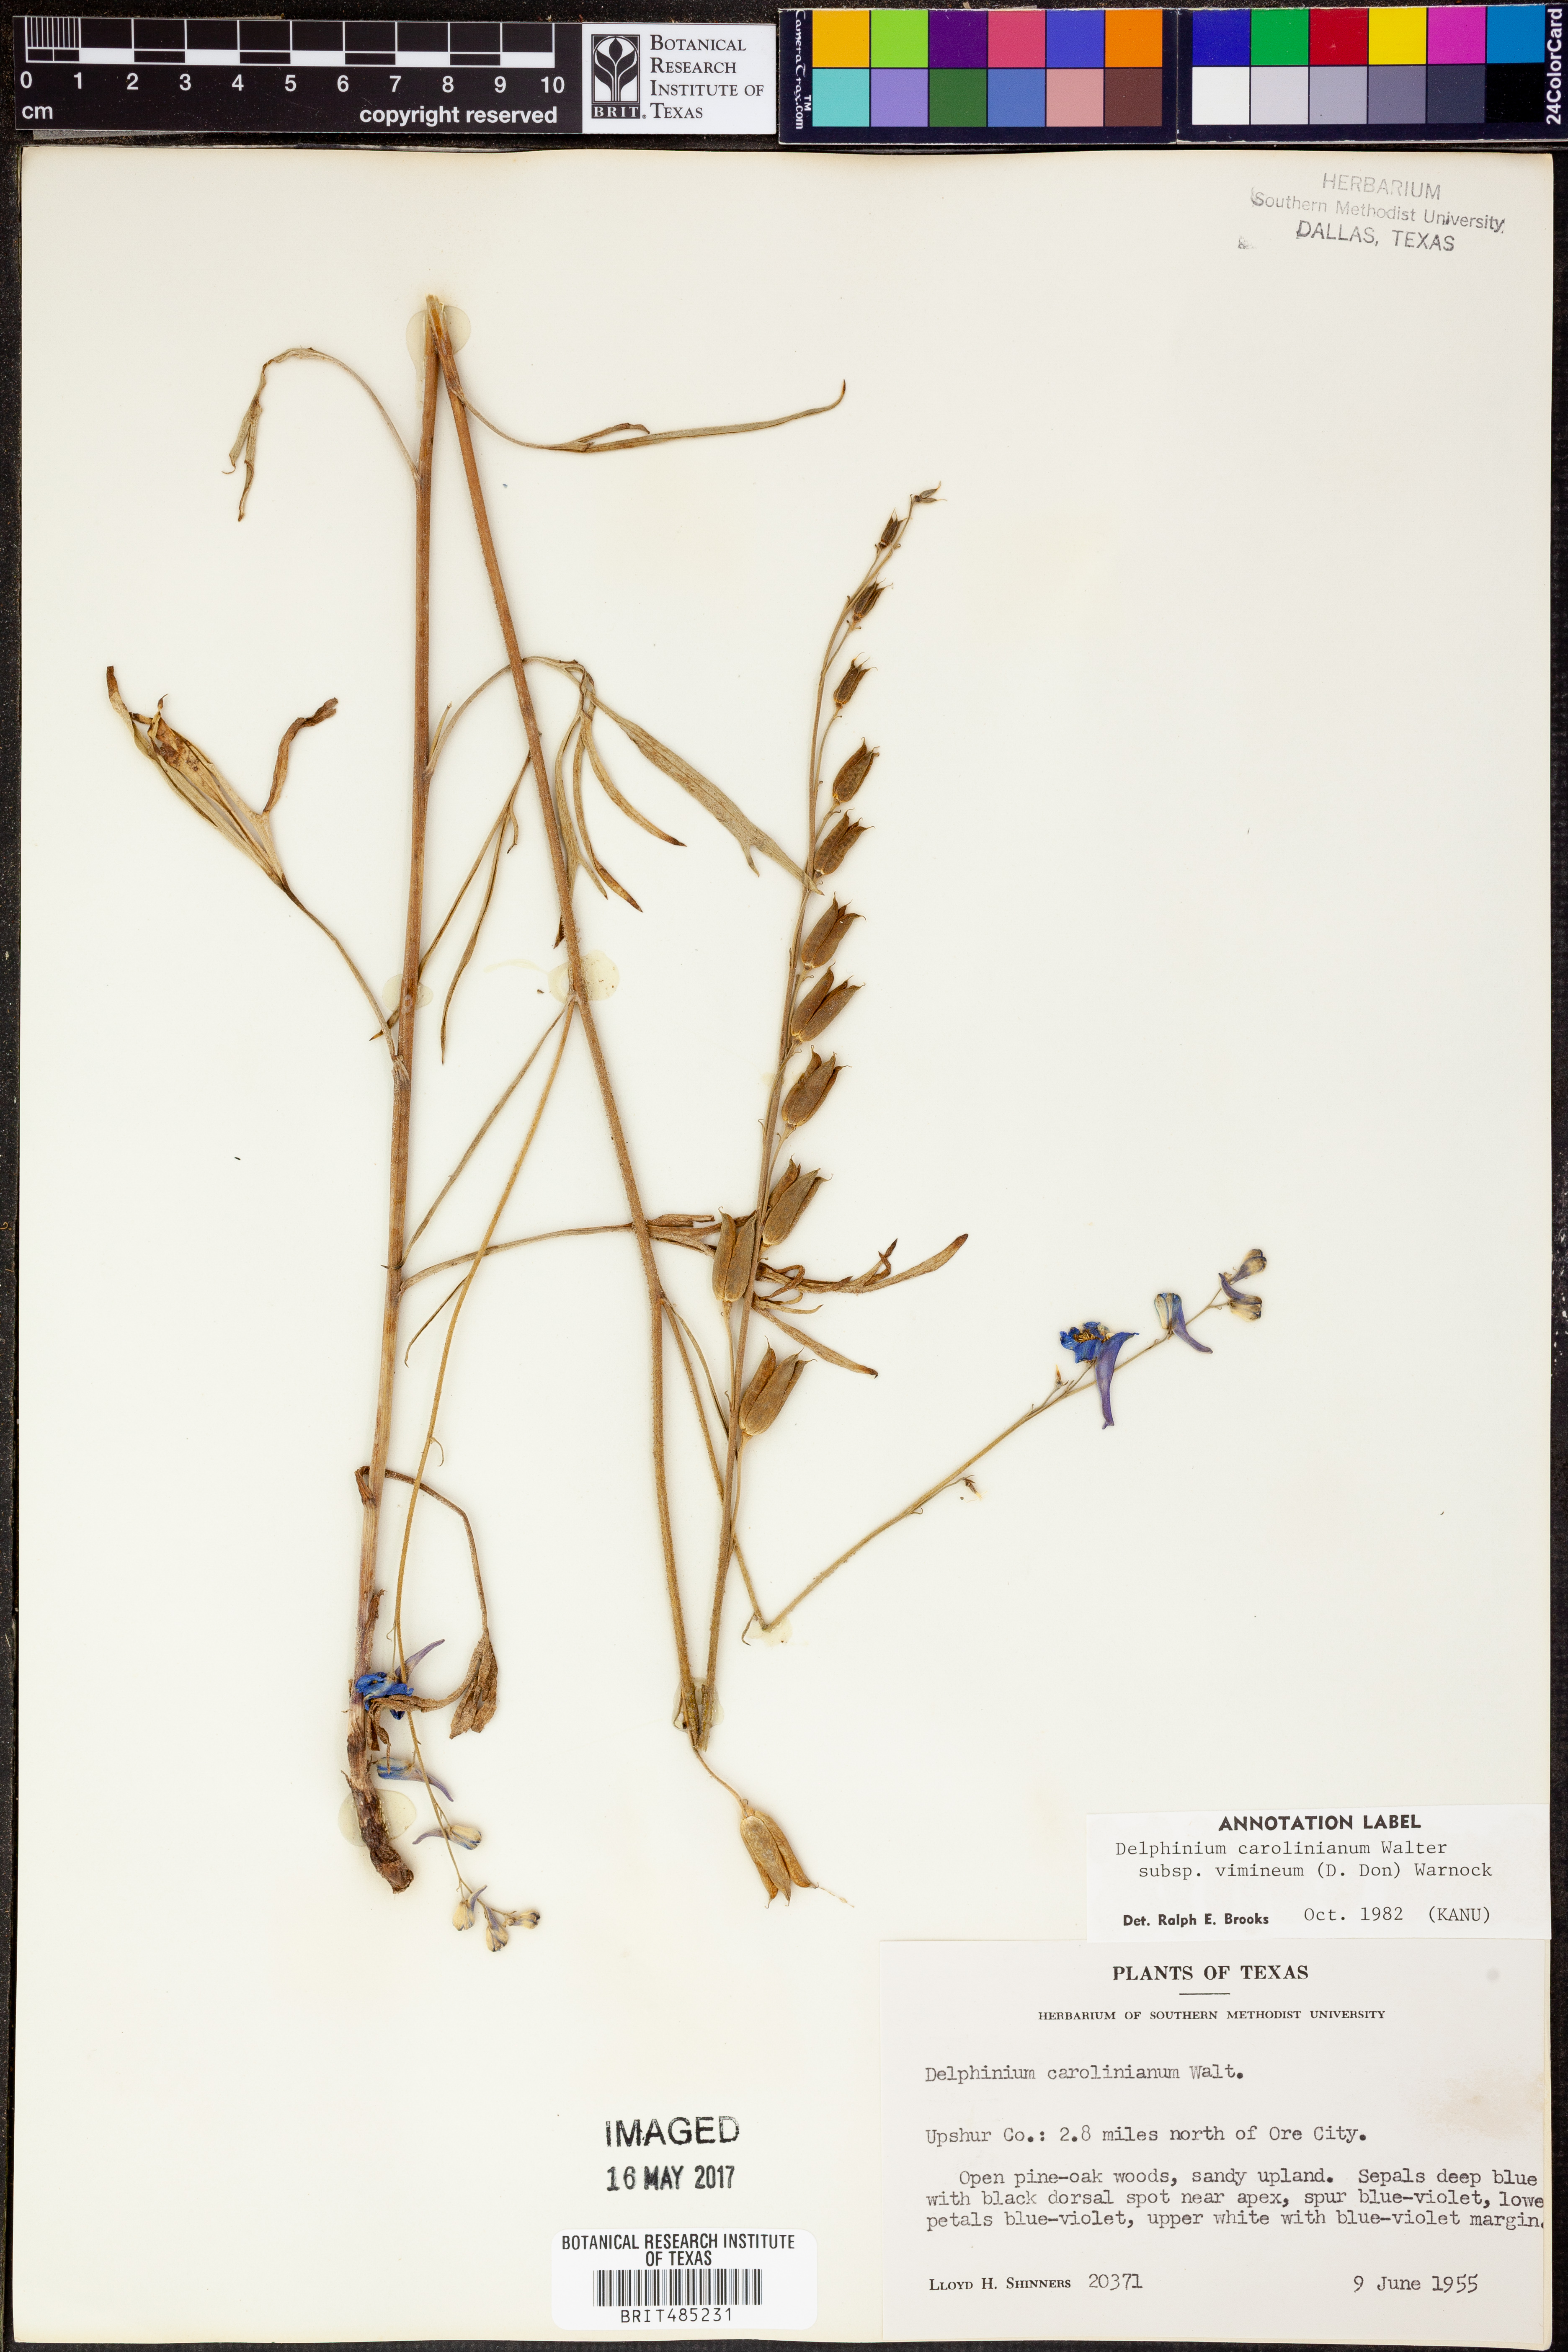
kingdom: Plantae
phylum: Tracheophyta
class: Magnoliopsida
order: Ranunculales
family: Ranunculaceae
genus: Delphinium
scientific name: Delphinium carolinianum
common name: Carolina larkspur
